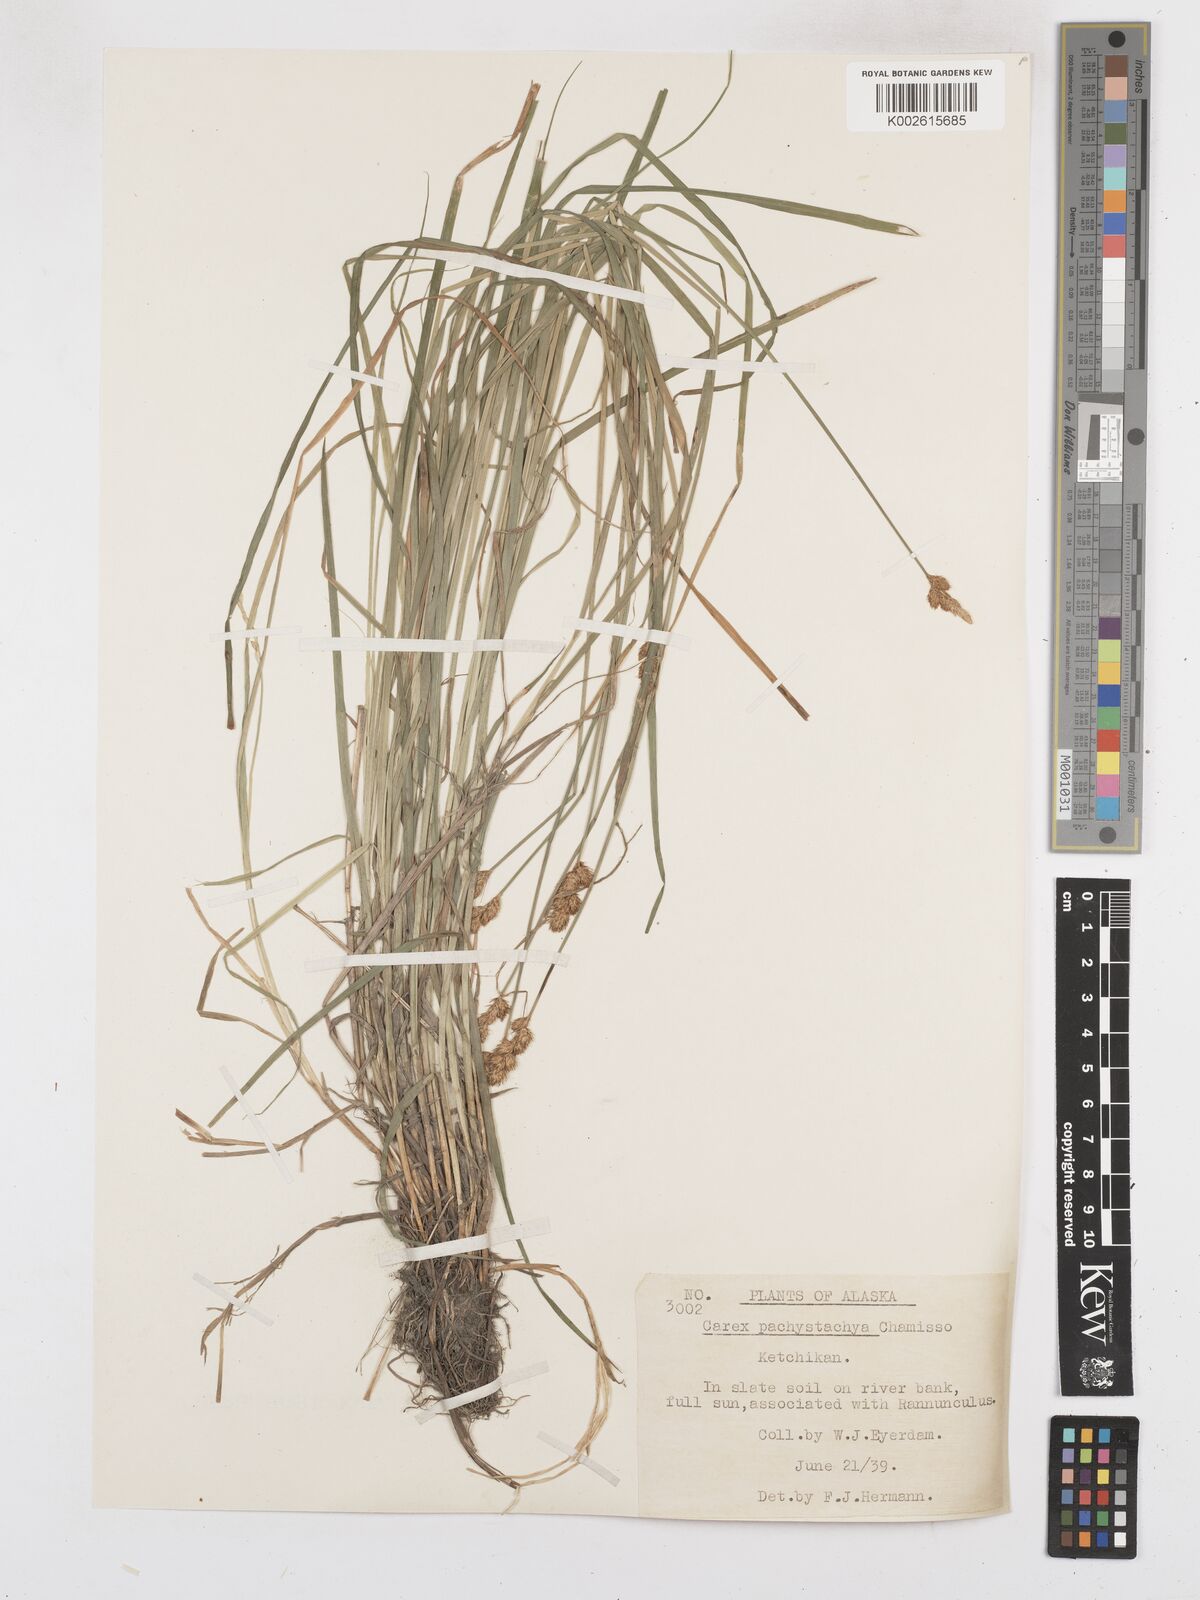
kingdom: Plantae
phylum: Tracheophyta
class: Liliopsida
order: Poales
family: Cyperaceae
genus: Carex
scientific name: Carex pachystachya
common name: Chamisso's sedge
